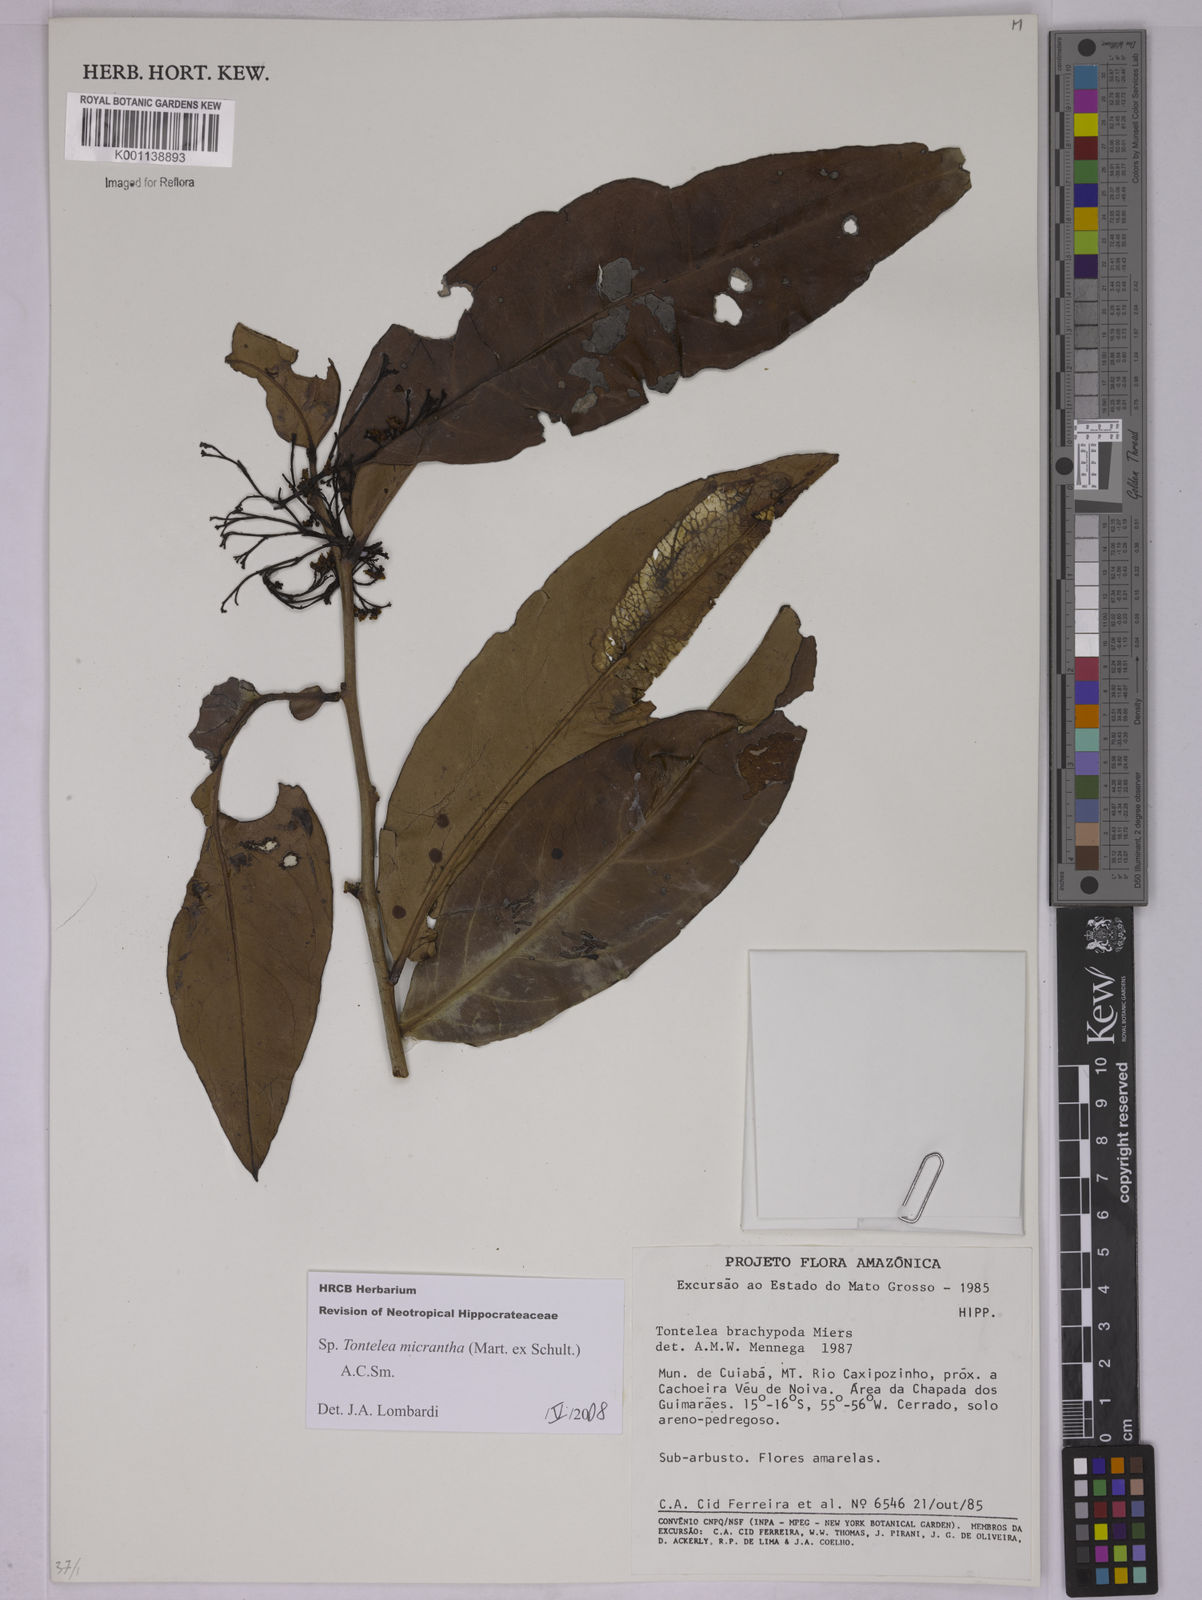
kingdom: Plantae
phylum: Tracheophyta
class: Magnoliopsida
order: Celastrales
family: Celastraceae
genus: Tontelea
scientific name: Tontelea micrantha
